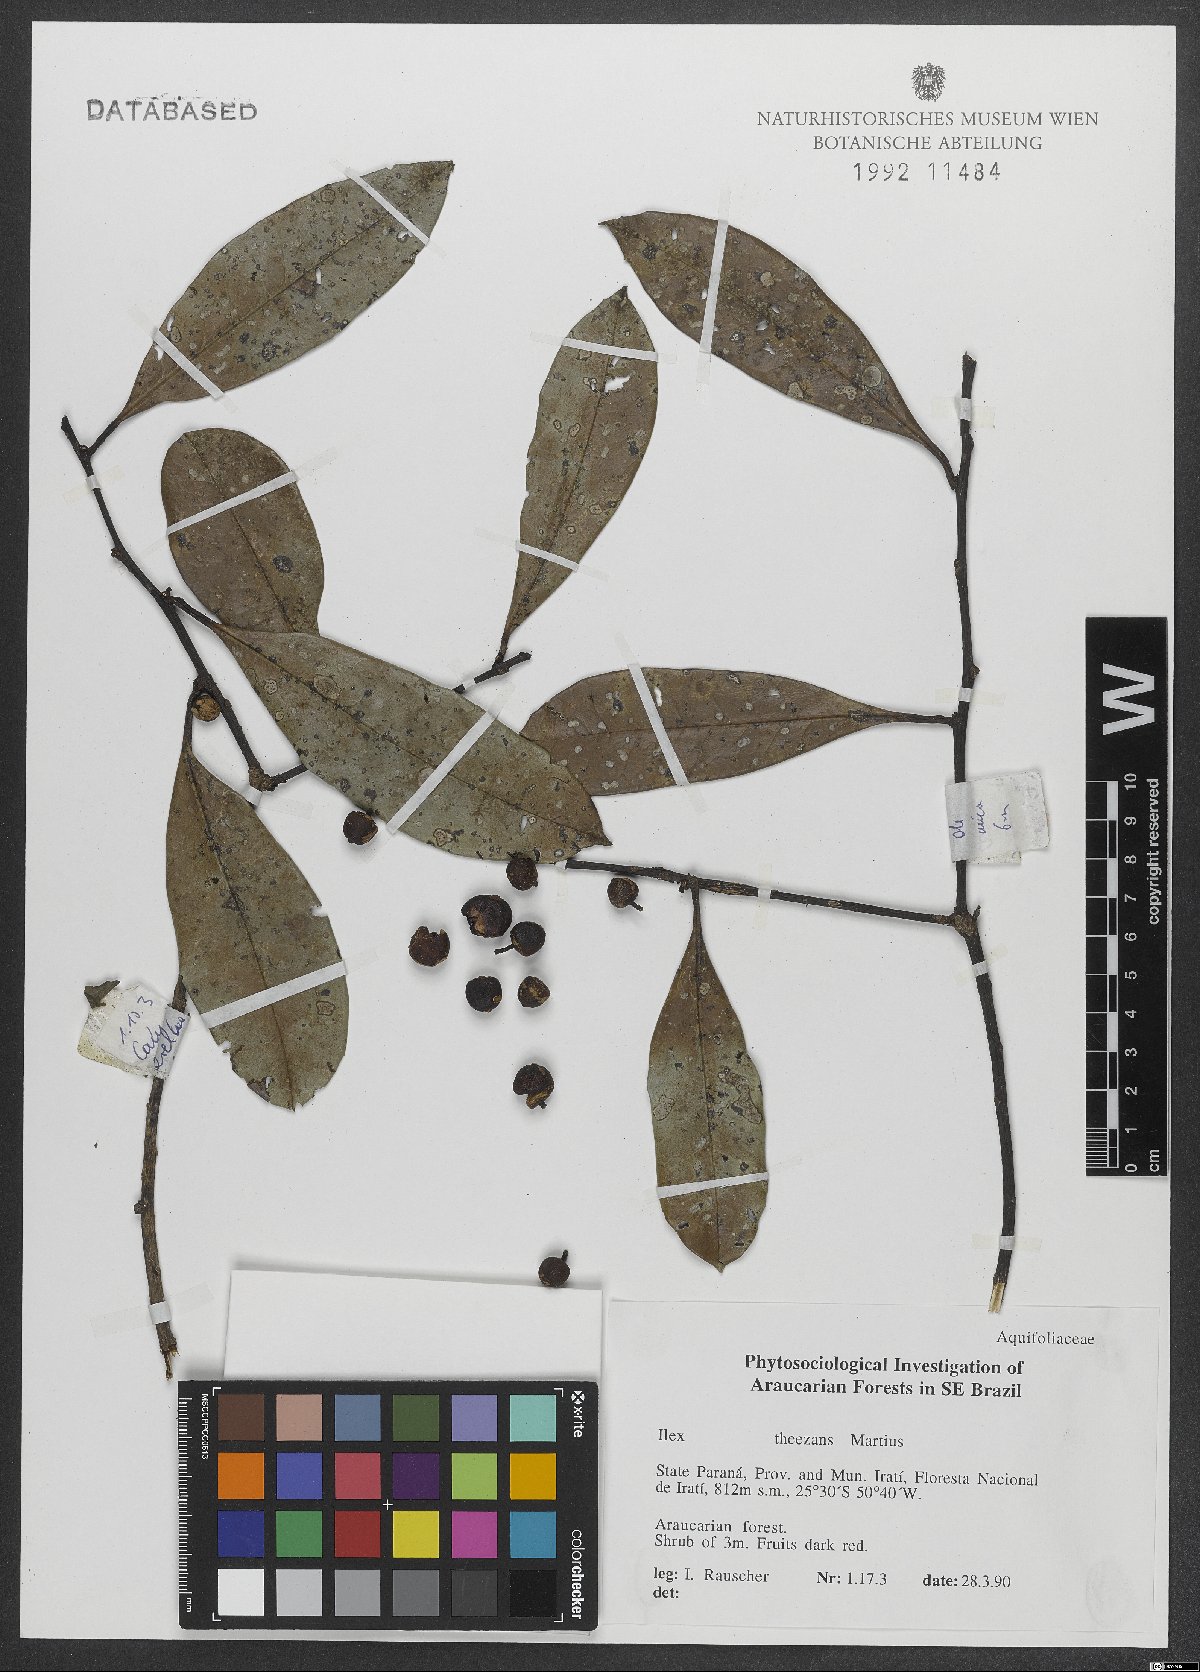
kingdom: Plantae
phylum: Tracheophyta
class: Magnoliopsida
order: Aquifoliales
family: Aquifoliaceae
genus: Ilex
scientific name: Ilex theezans
